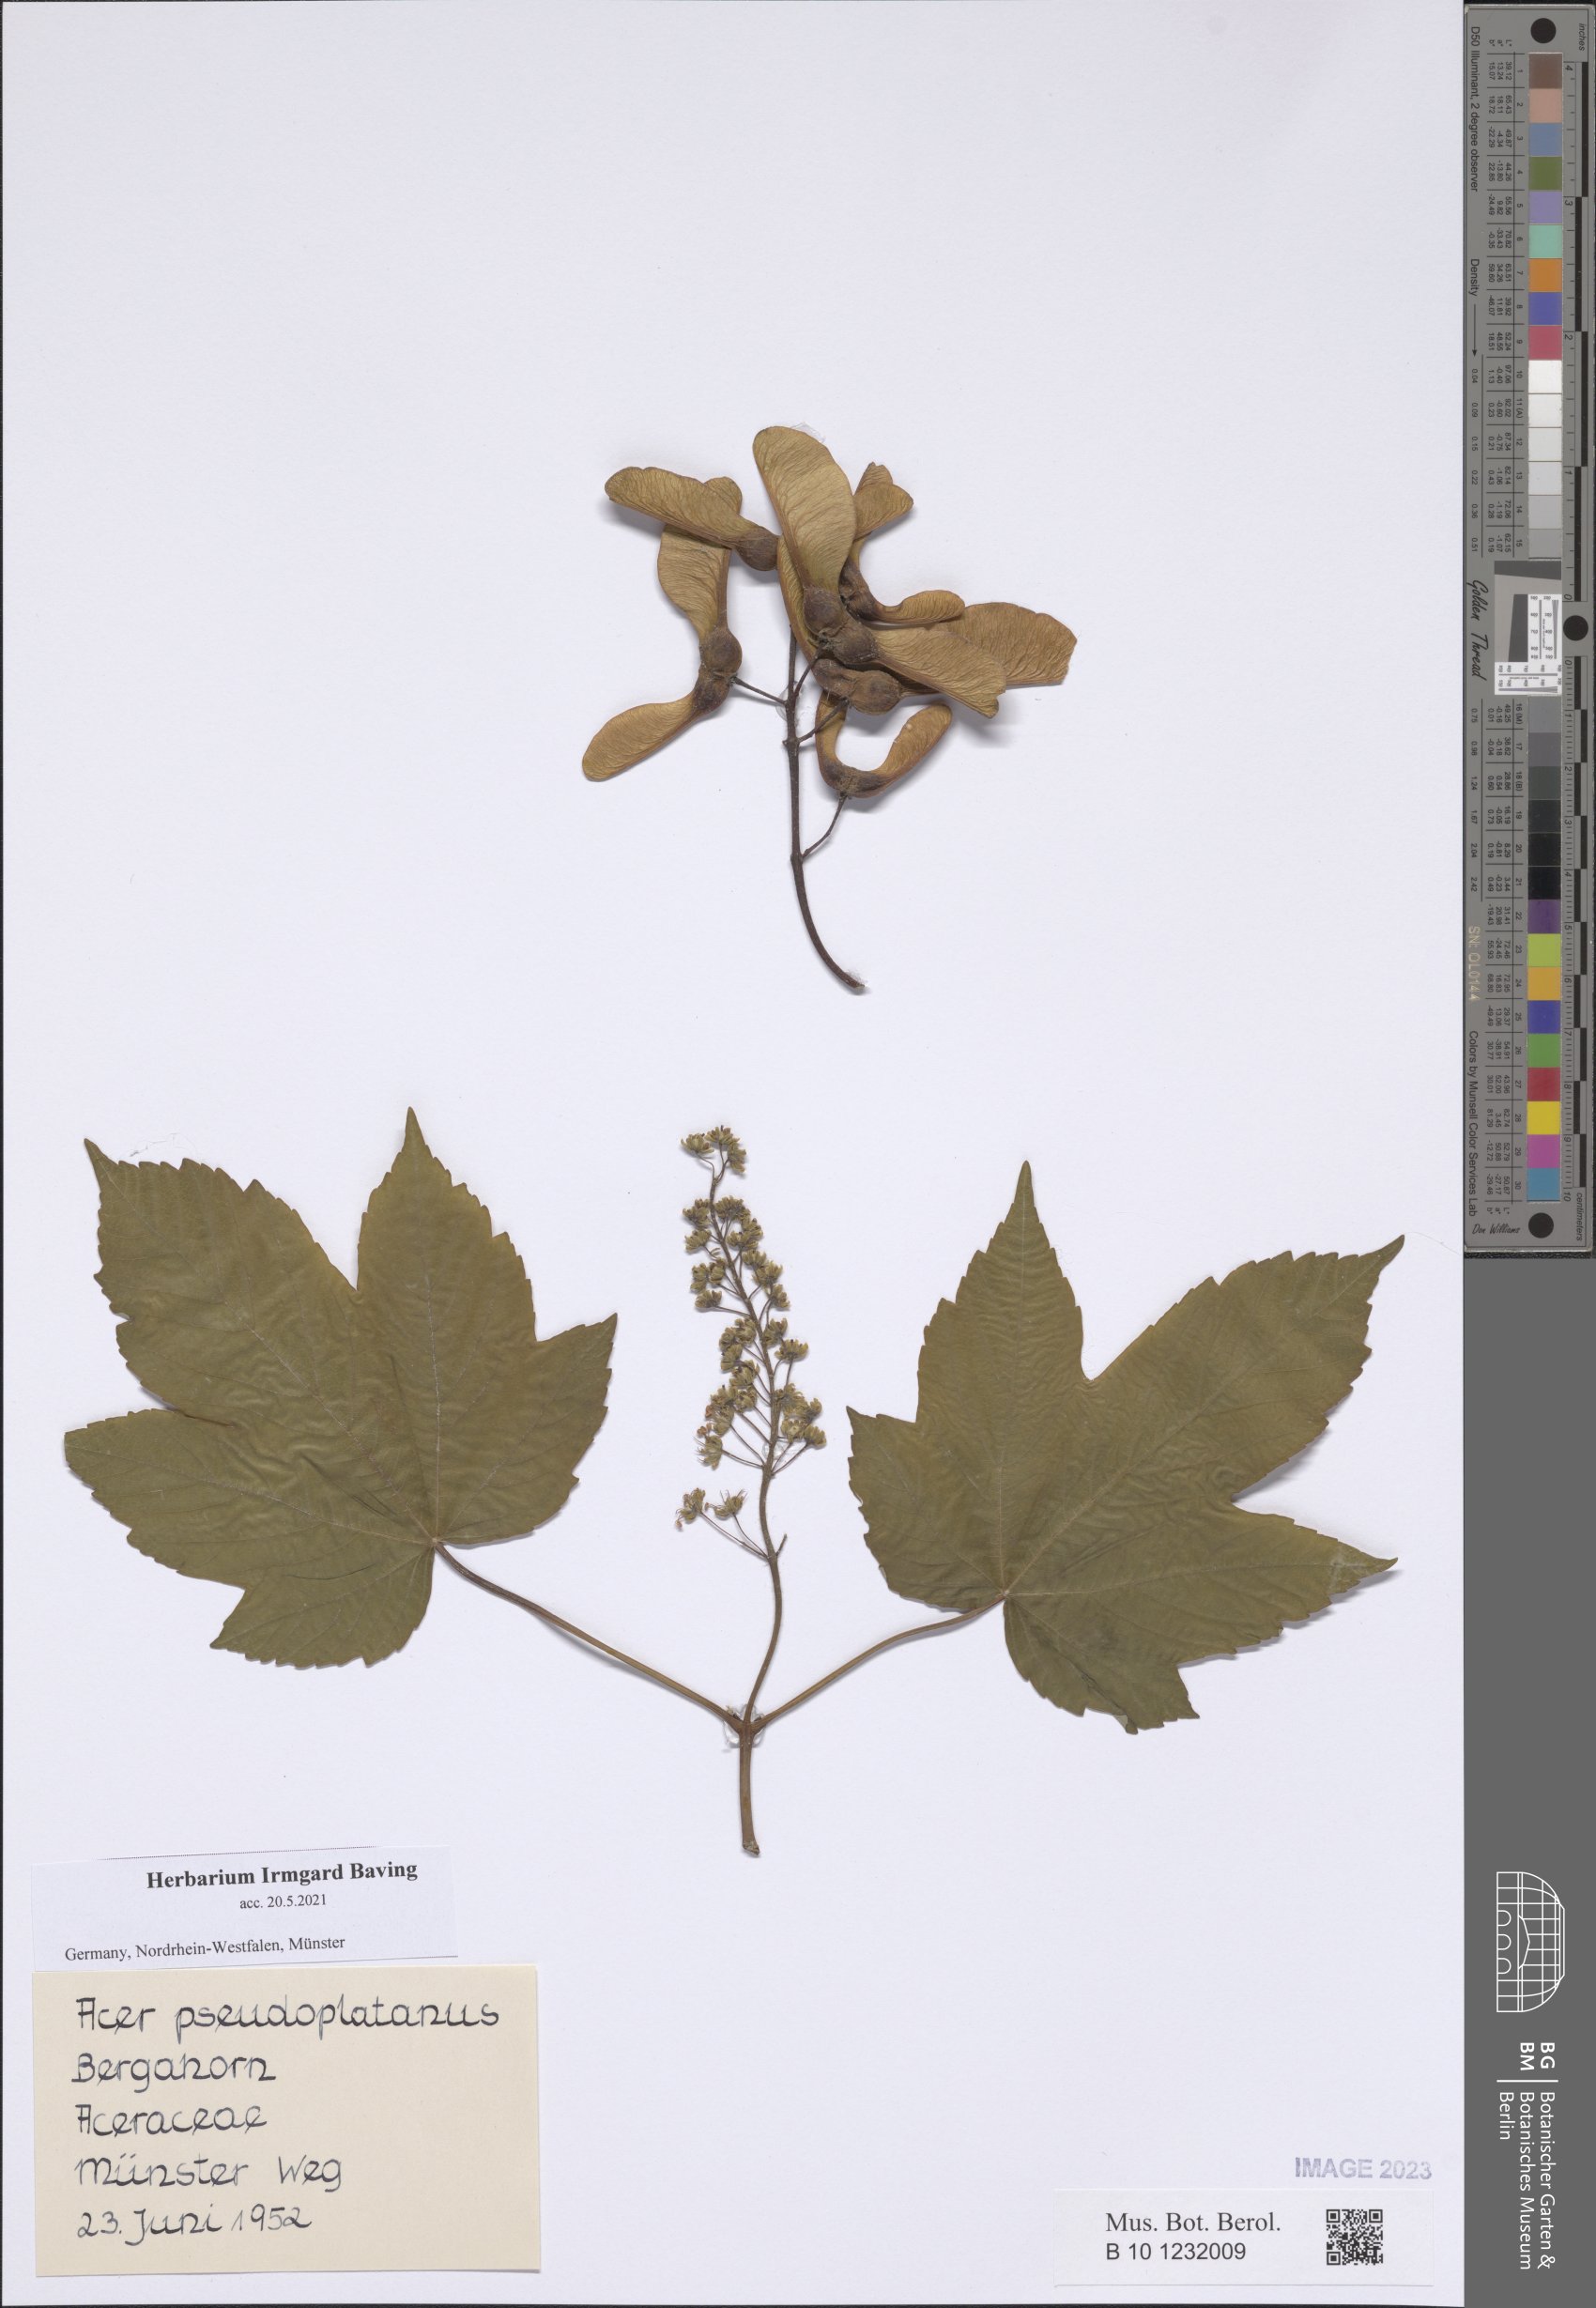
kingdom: Plantae
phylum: Tracheophyta
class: Magnoliopsida
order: Sapindales
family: Sapindaceae
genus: Acer
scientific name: Acer pseudoplatanus
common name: Sycamore
